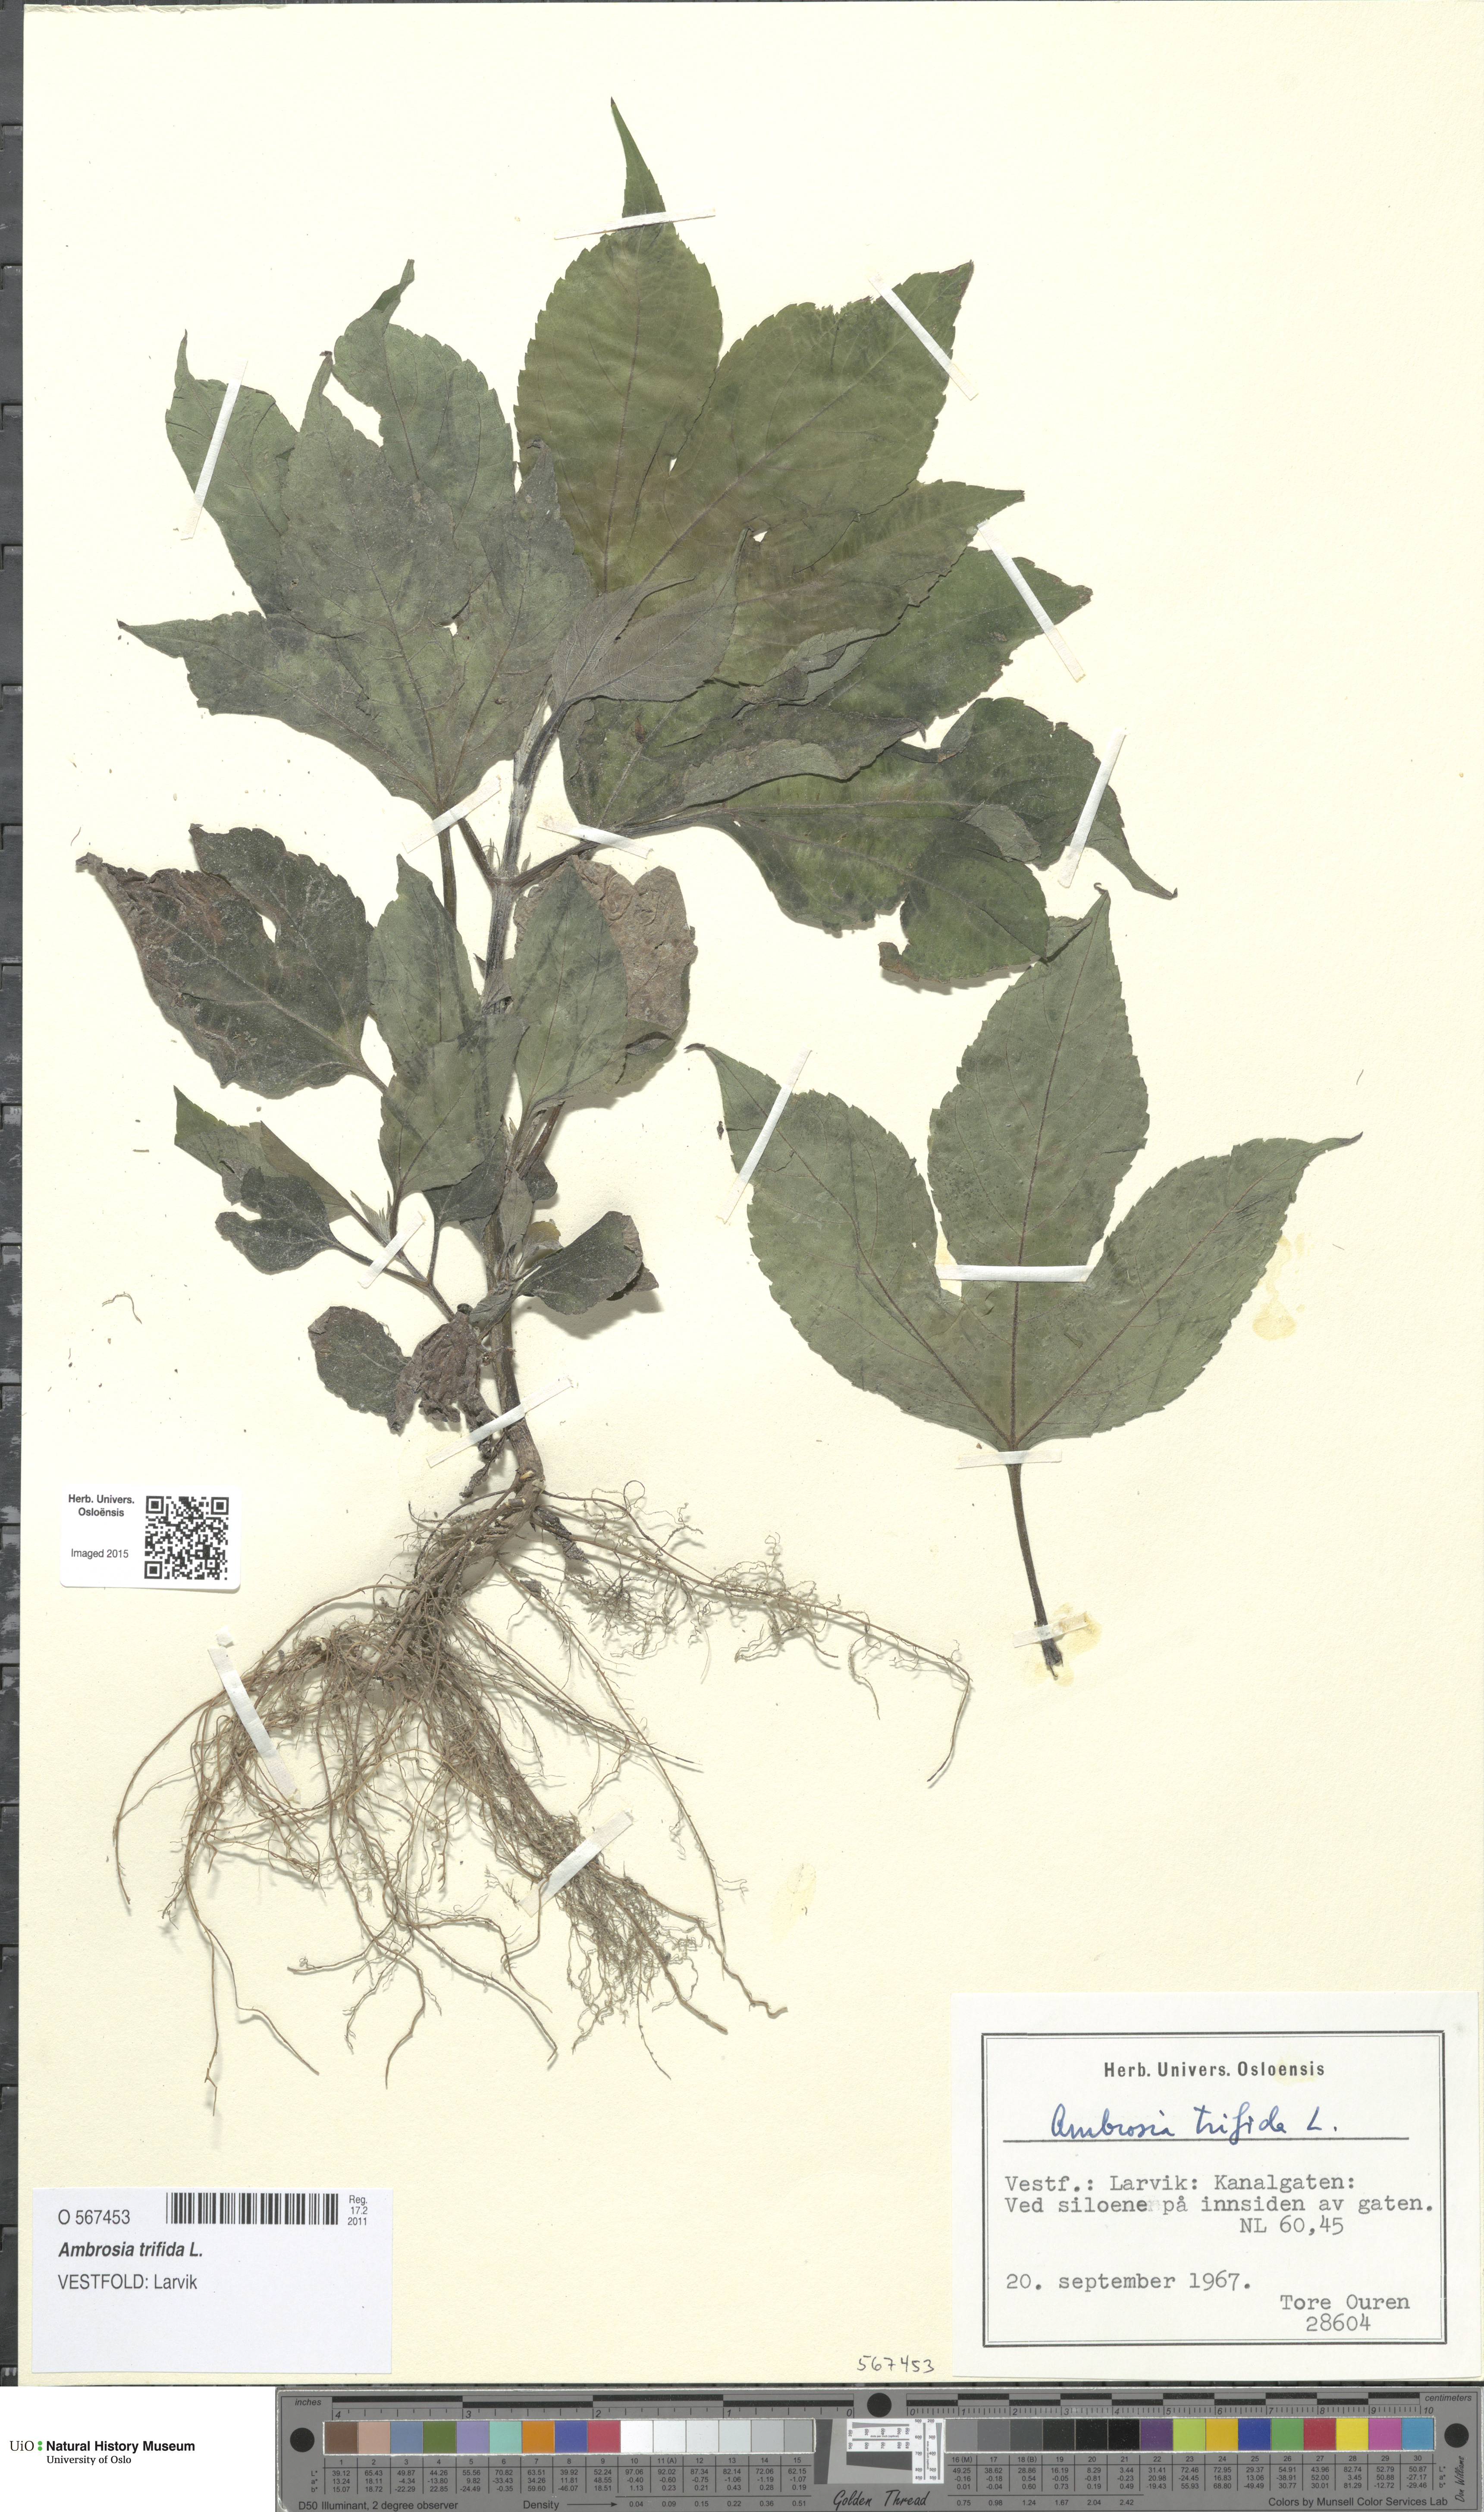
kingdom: Plantae
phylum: Tracheophyta
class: Magnoliopsida
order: Asterales
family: Asteraceae
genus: Ambrosia
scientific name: Ambrosia trifida
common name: Giant ragweed
